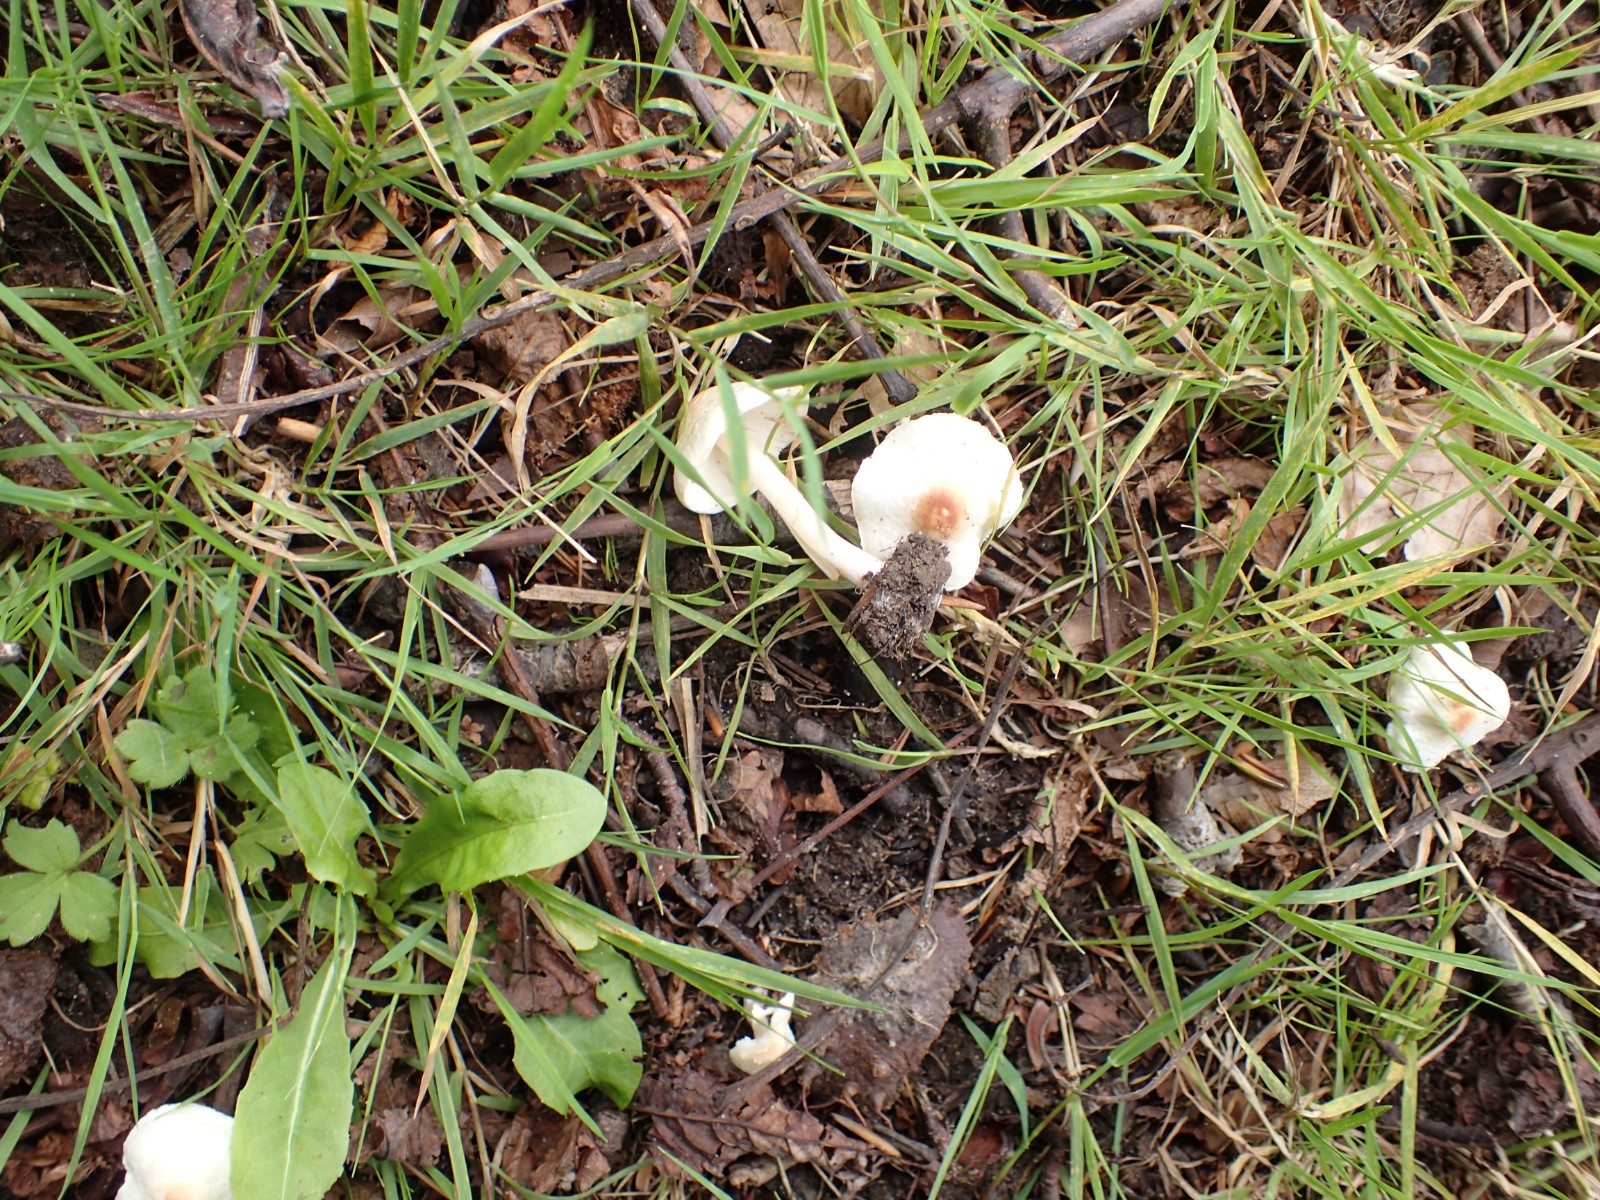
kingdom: Fungi
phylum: Basidiomycota
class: Agaricomycetes
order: Agaricales
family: Agaricaceae
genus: Lepiota
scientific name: Lepiota cristata
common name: stinkende parasolhat
